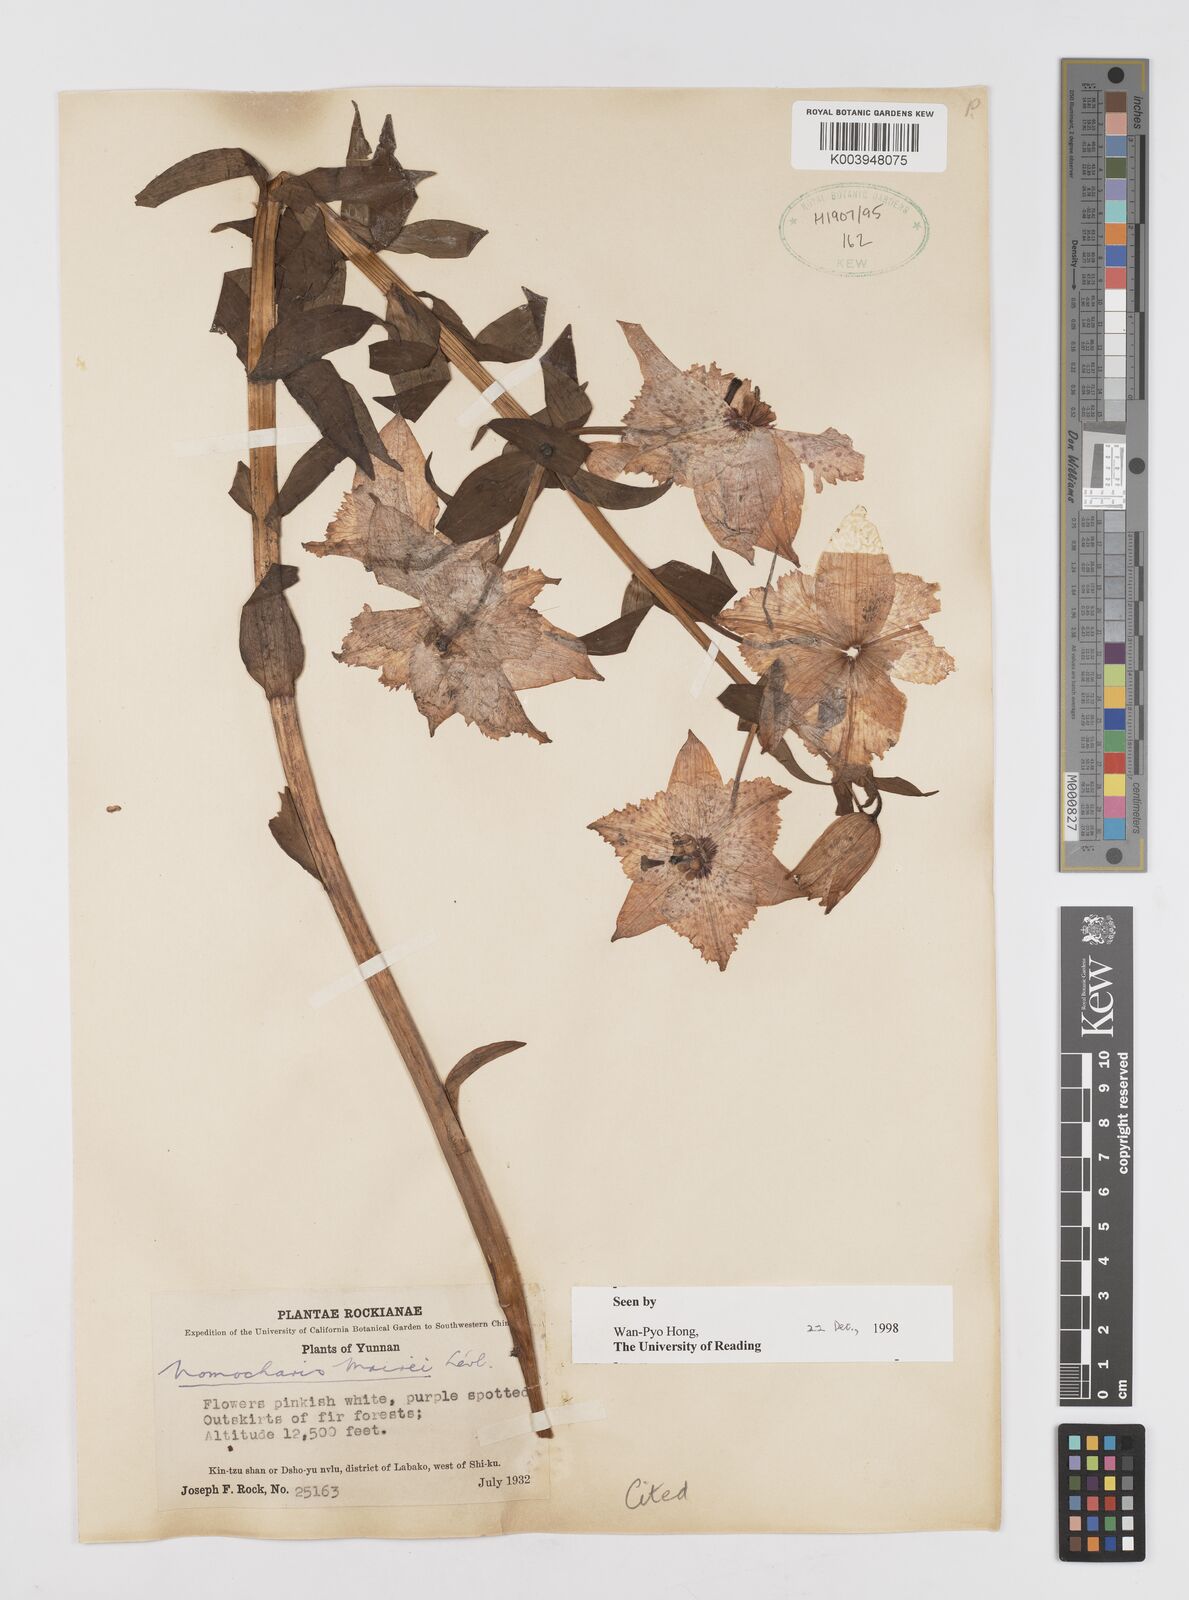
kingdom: Plantae
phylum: Tracheophyta
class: Liliopsida
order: Liliales
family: Liliaceae
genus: Lilium
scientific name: Lilium pardanthinum
